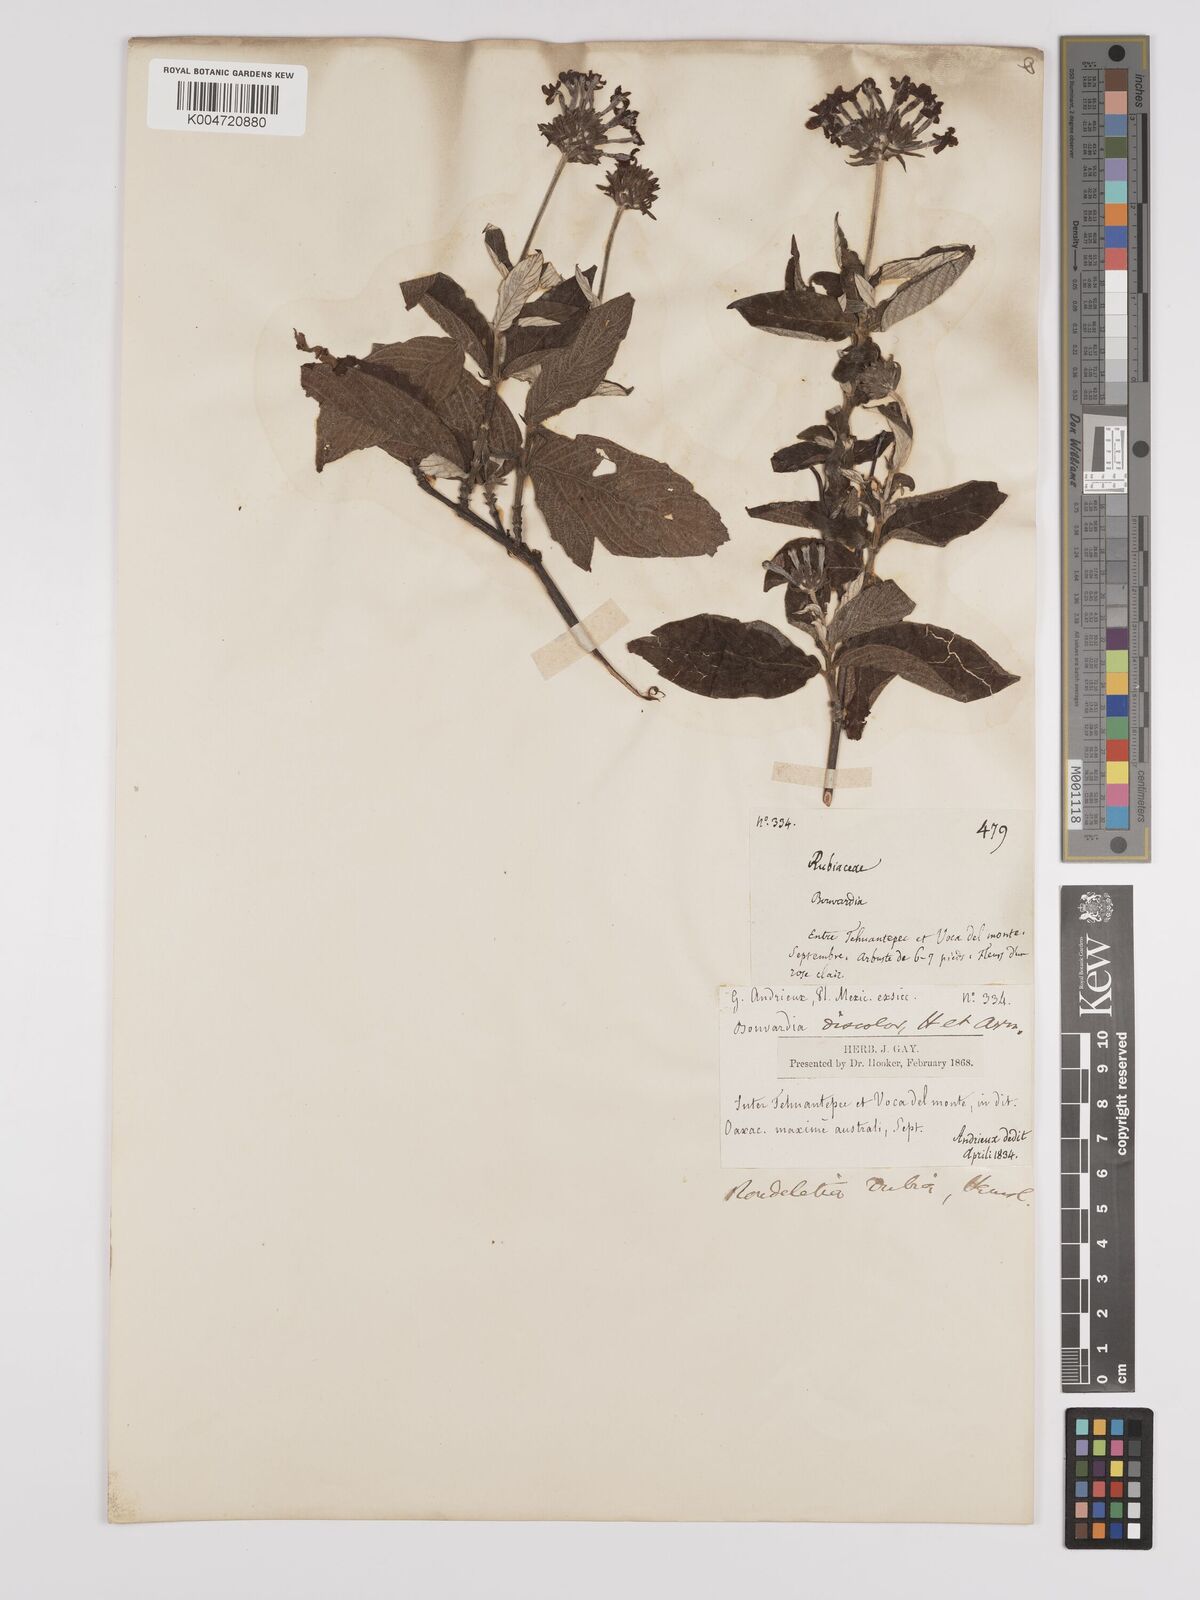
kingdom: Plantae
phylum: Tracheophyta
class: Magnoliopsida
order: Gentianales
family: Rubiaceae
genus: Arachnothryx
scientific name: Arachnothryx leucophylla
